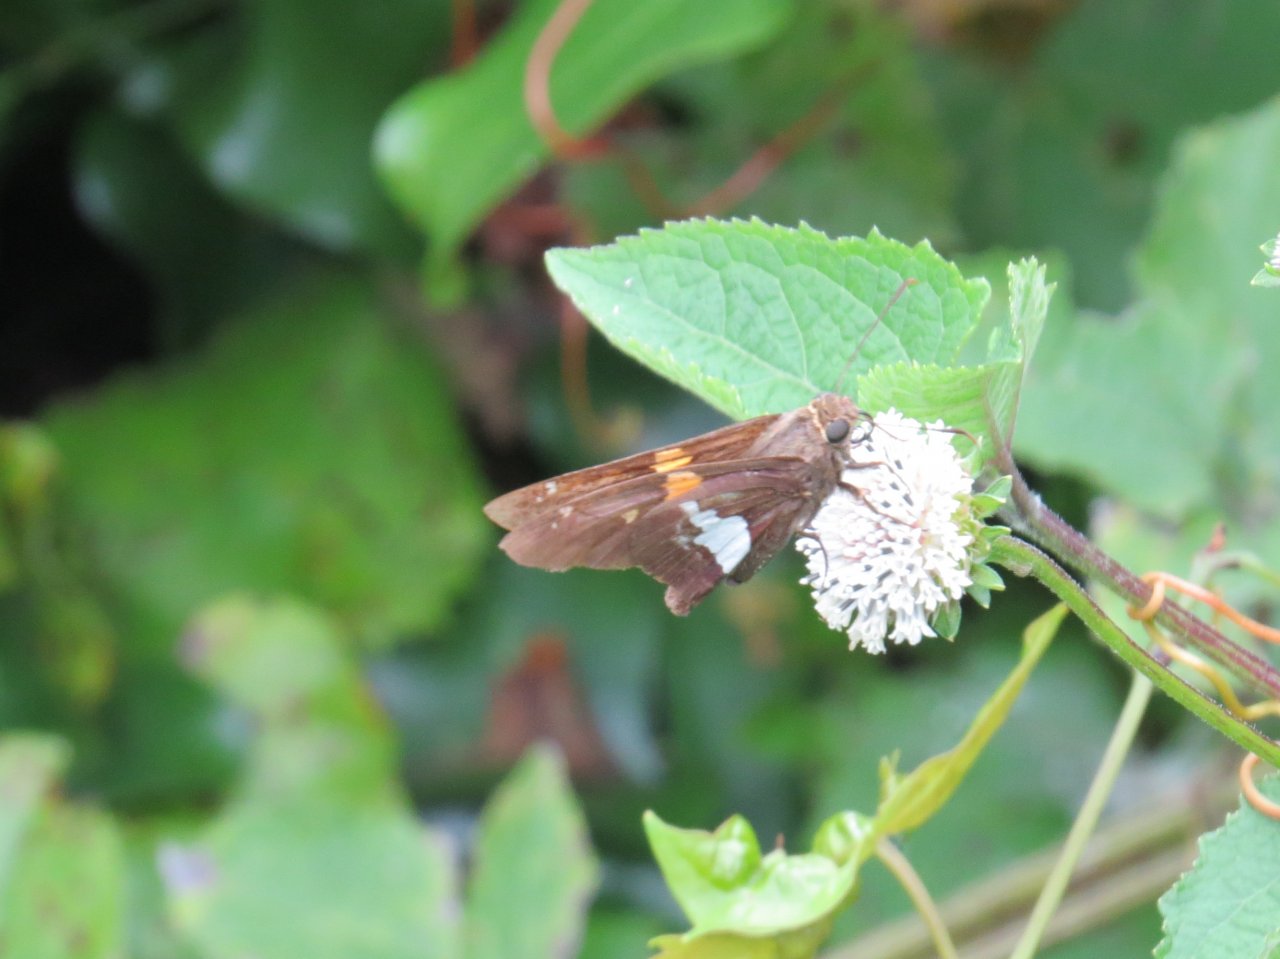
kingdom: Animalia
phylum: Arthropoda
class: Insecta
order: Lepidoptera
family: Hesperiidae
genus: Epargyreus
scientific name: Epargyreus clarus
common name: Silver-spotted Skipper
